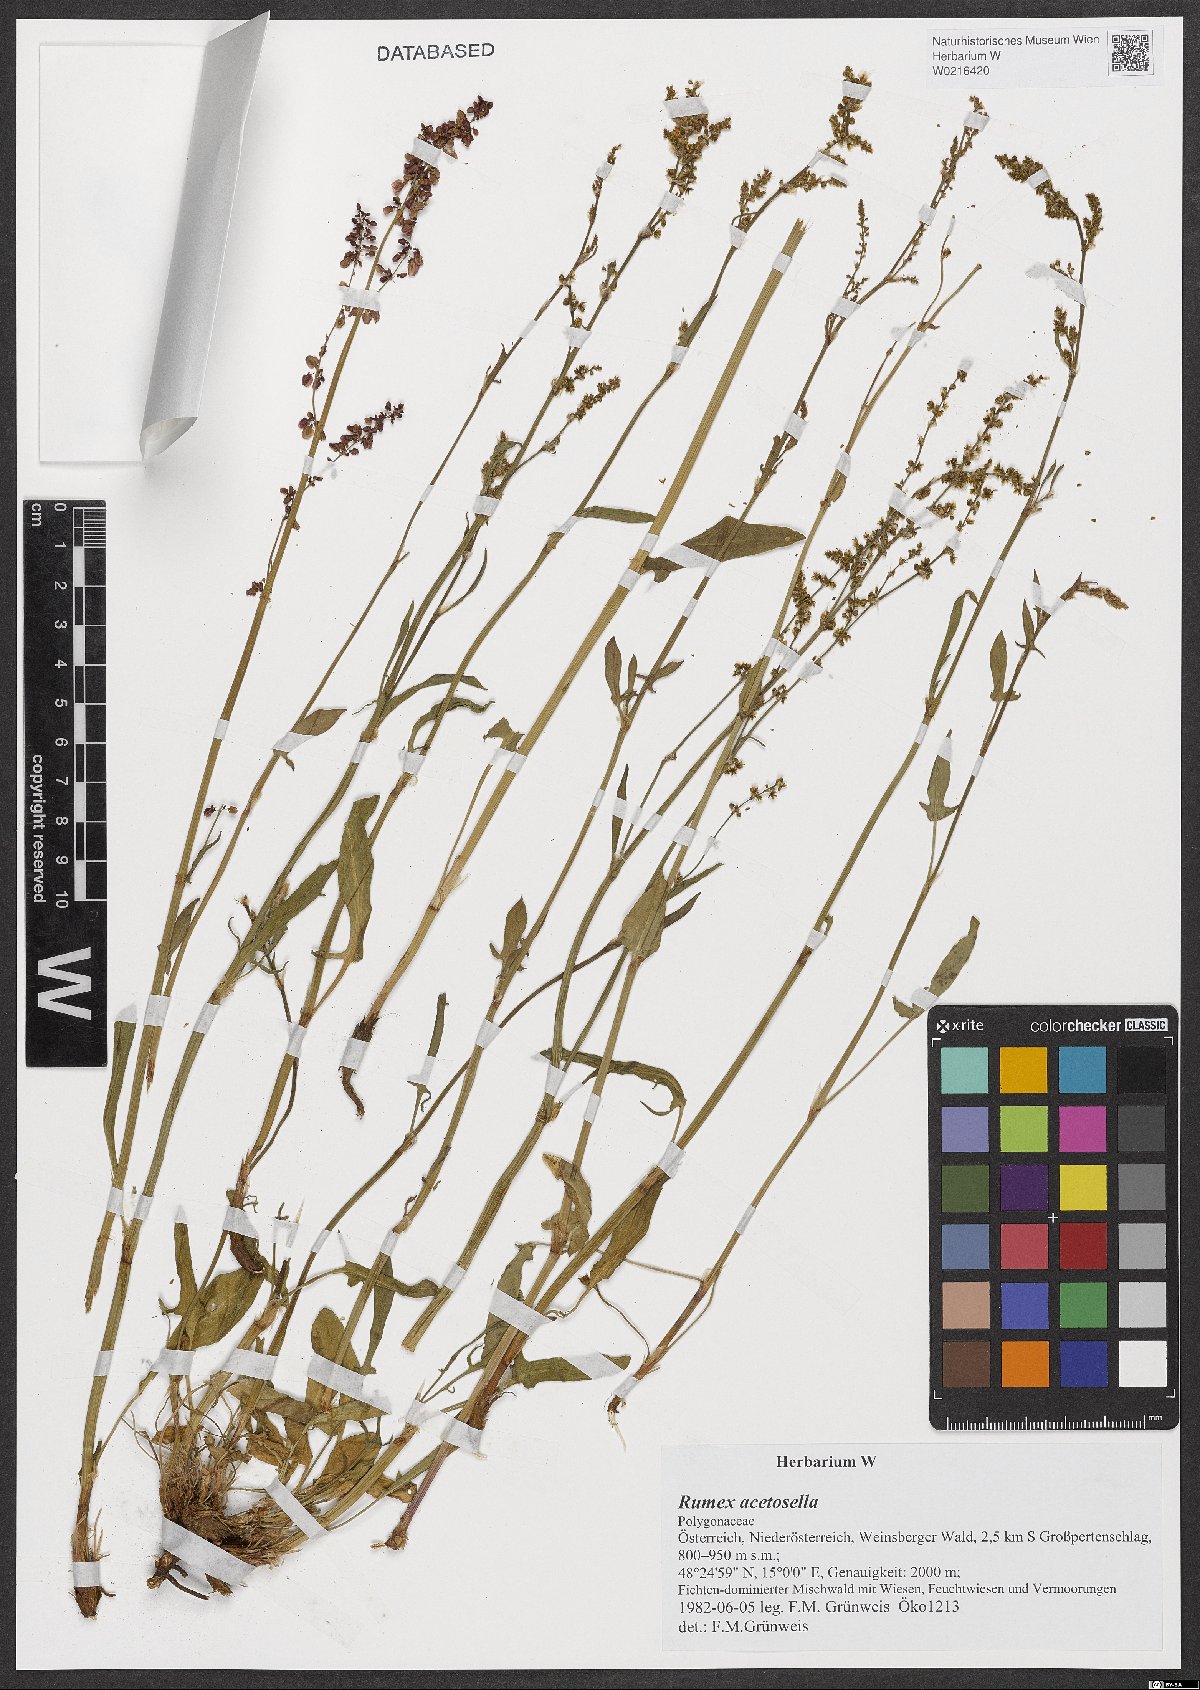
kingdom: Plantae
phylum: Tracheophyta
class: Magnoliopsida
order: Caryophyllales
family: Polygonaceae
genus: Rumex
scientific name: Rumex acetosella
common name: Common sheep sorrel
